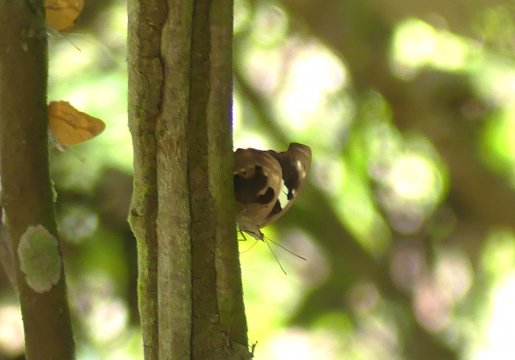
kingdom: Animalia
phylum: Arthropoda
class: Insecta
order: Lepidoptera
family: Nymphalidae
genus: Catonephele
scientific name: Catonephele numilia
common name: Blue-frosted Banner
